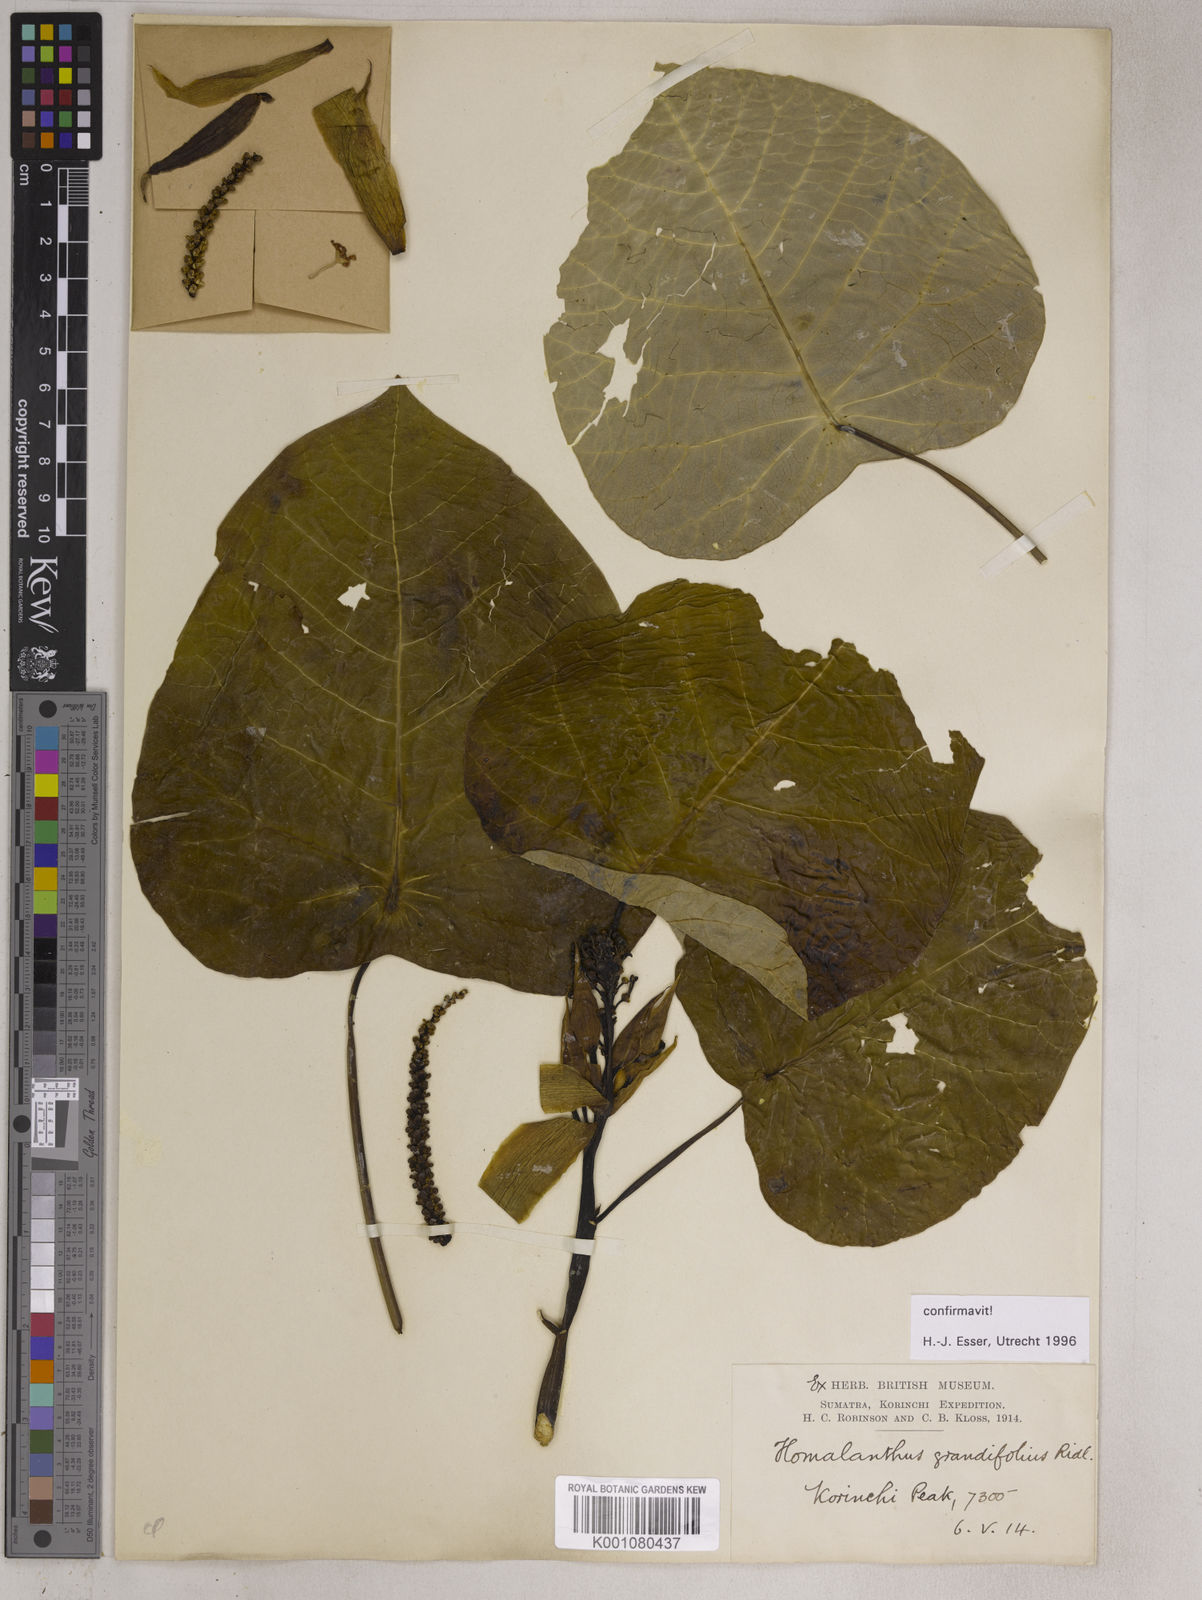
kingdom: Plantae
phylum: Tracheophyta
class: Magnoliopsida
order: Malpighiales
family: Euphorbiaceae
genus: Homalanthus
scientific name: Homalanthus grandifolius
